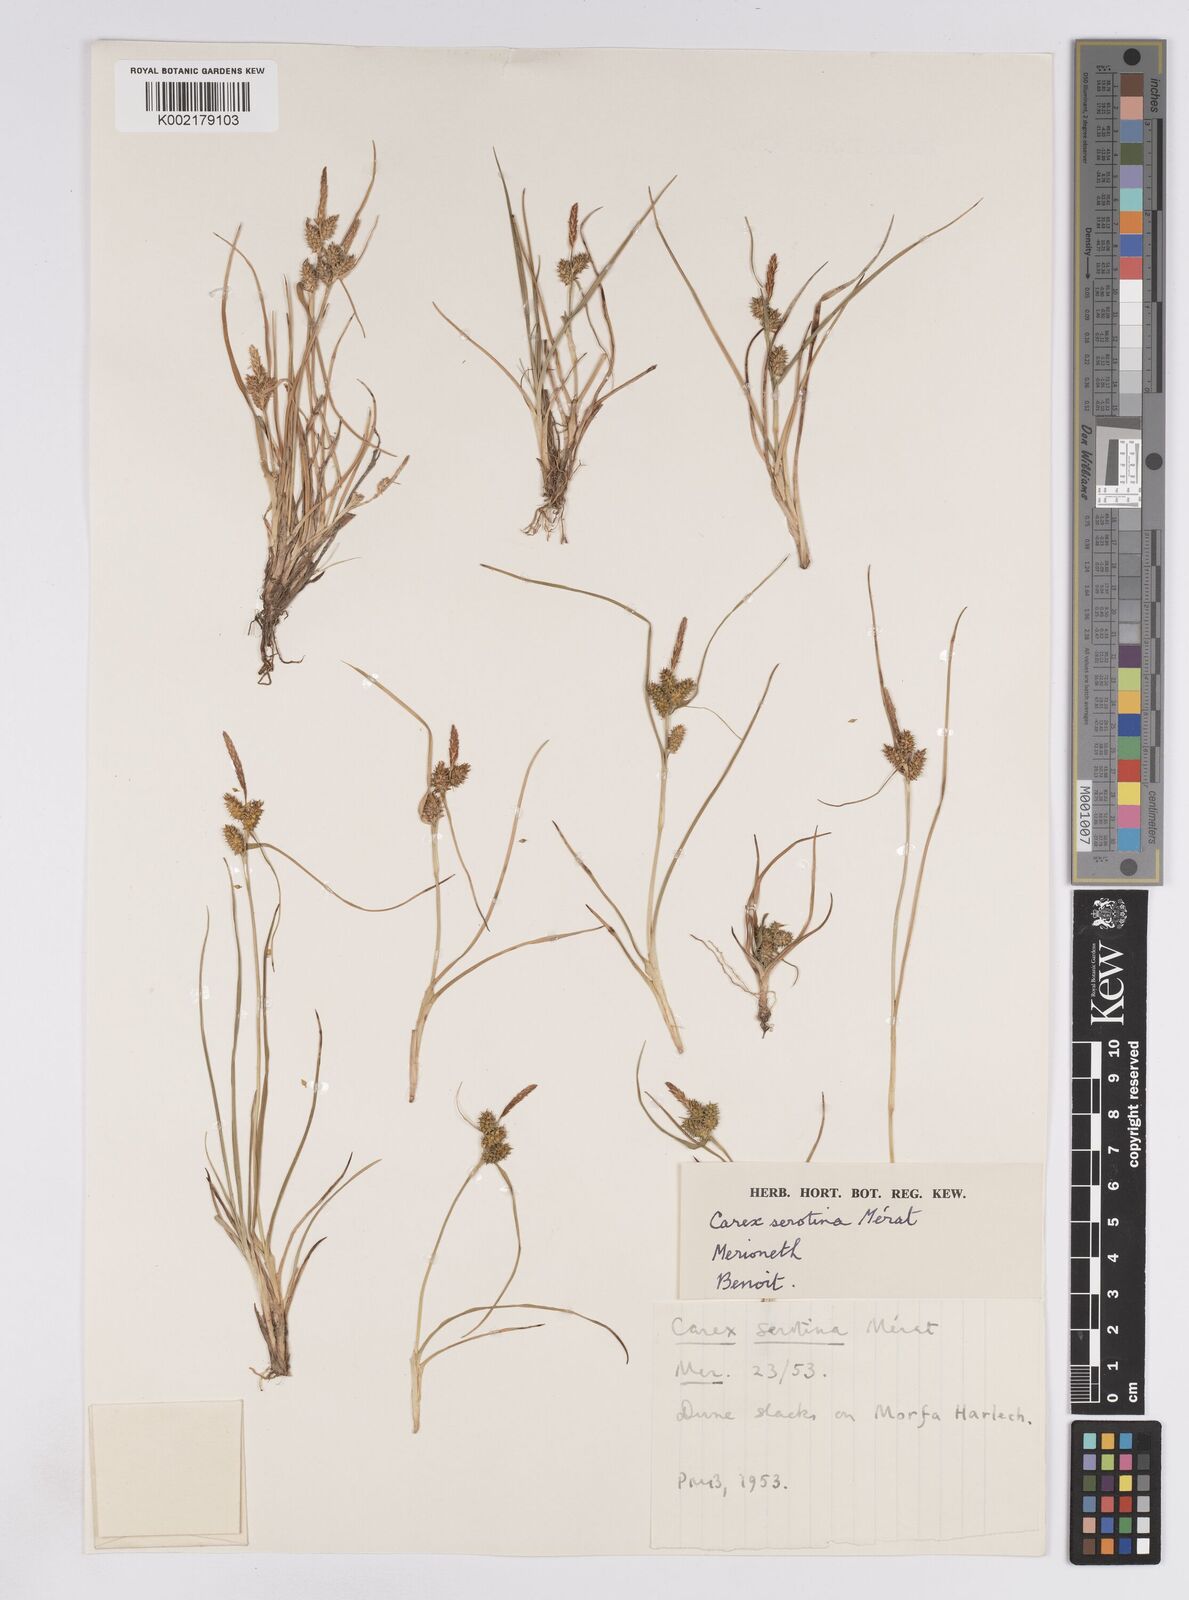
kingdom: Plantae
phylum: Tracheophyta
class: Liliopsida
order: Poales
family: Cyperaceae
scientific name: Cyperaceae
